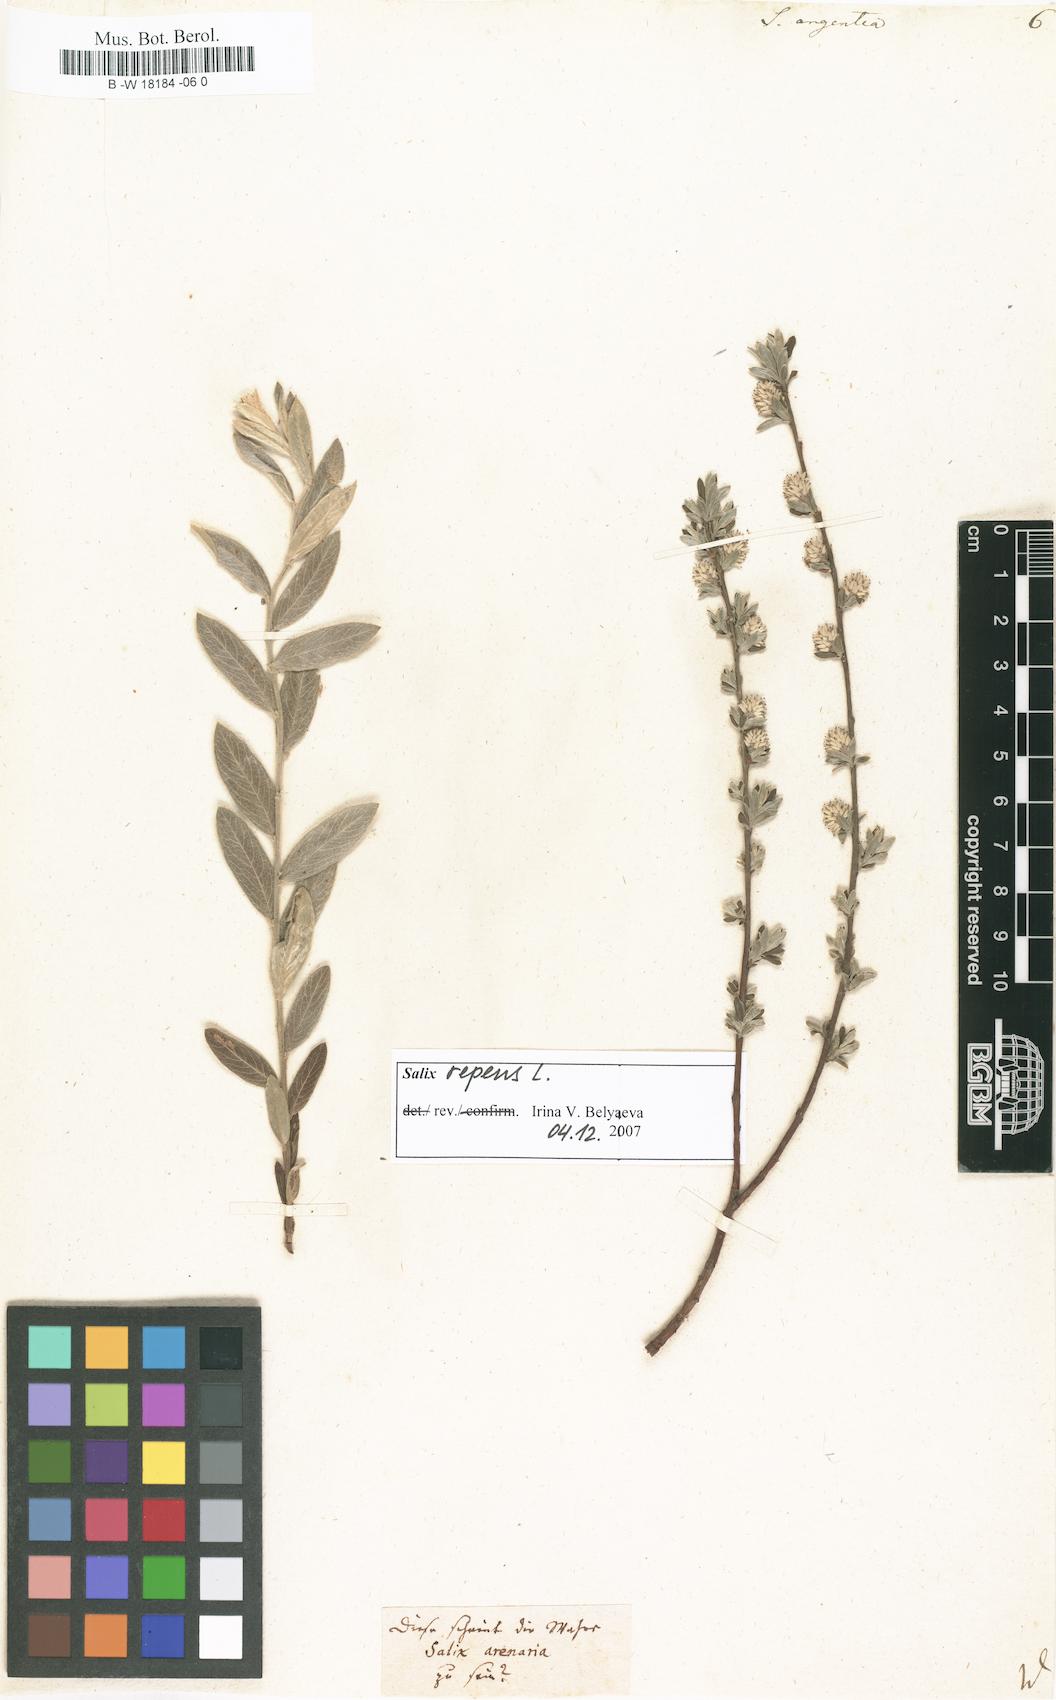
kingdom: Plantae
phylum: Tracheophyta
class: Magnoliopsida
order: Malpighiales
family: Salicaceae
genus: Salix
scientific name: Salix repens
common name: Creeping willow
